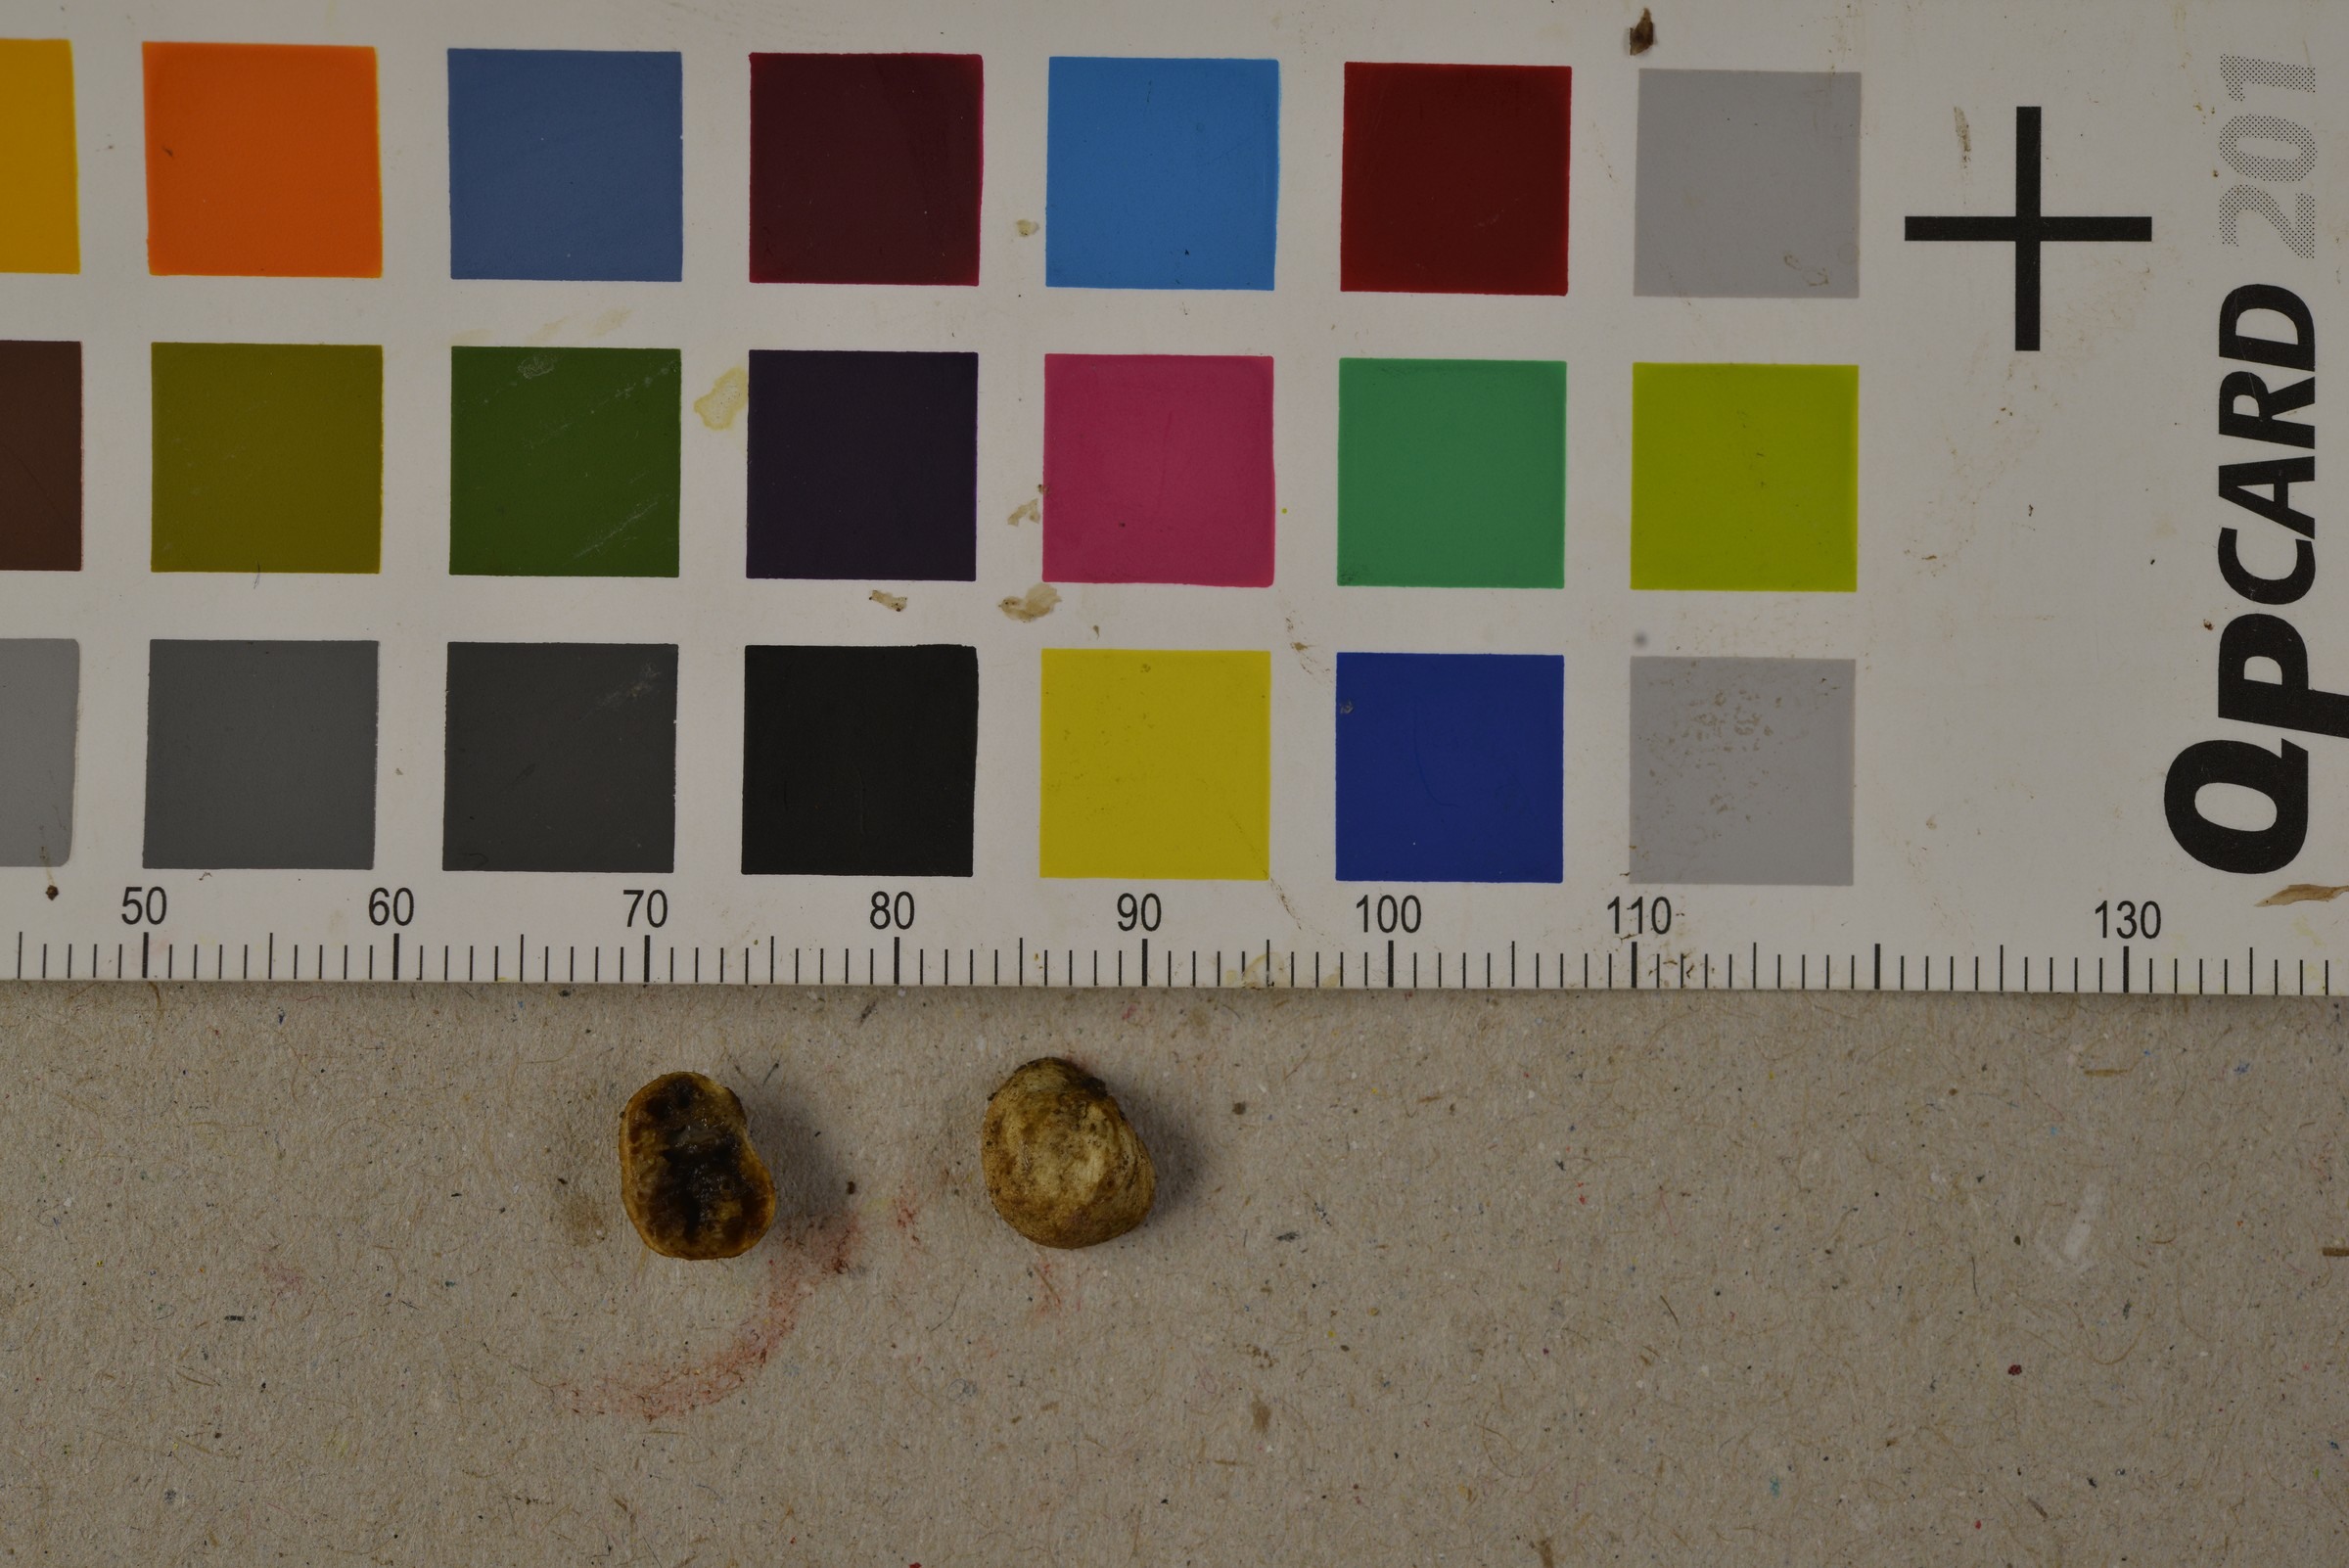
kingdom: Fungi
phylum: Basidiomycota
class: Agaricomycetes
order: Agaricales
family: Hymenogastraceae
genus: Hymenogaster
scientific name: Hymenogaster
